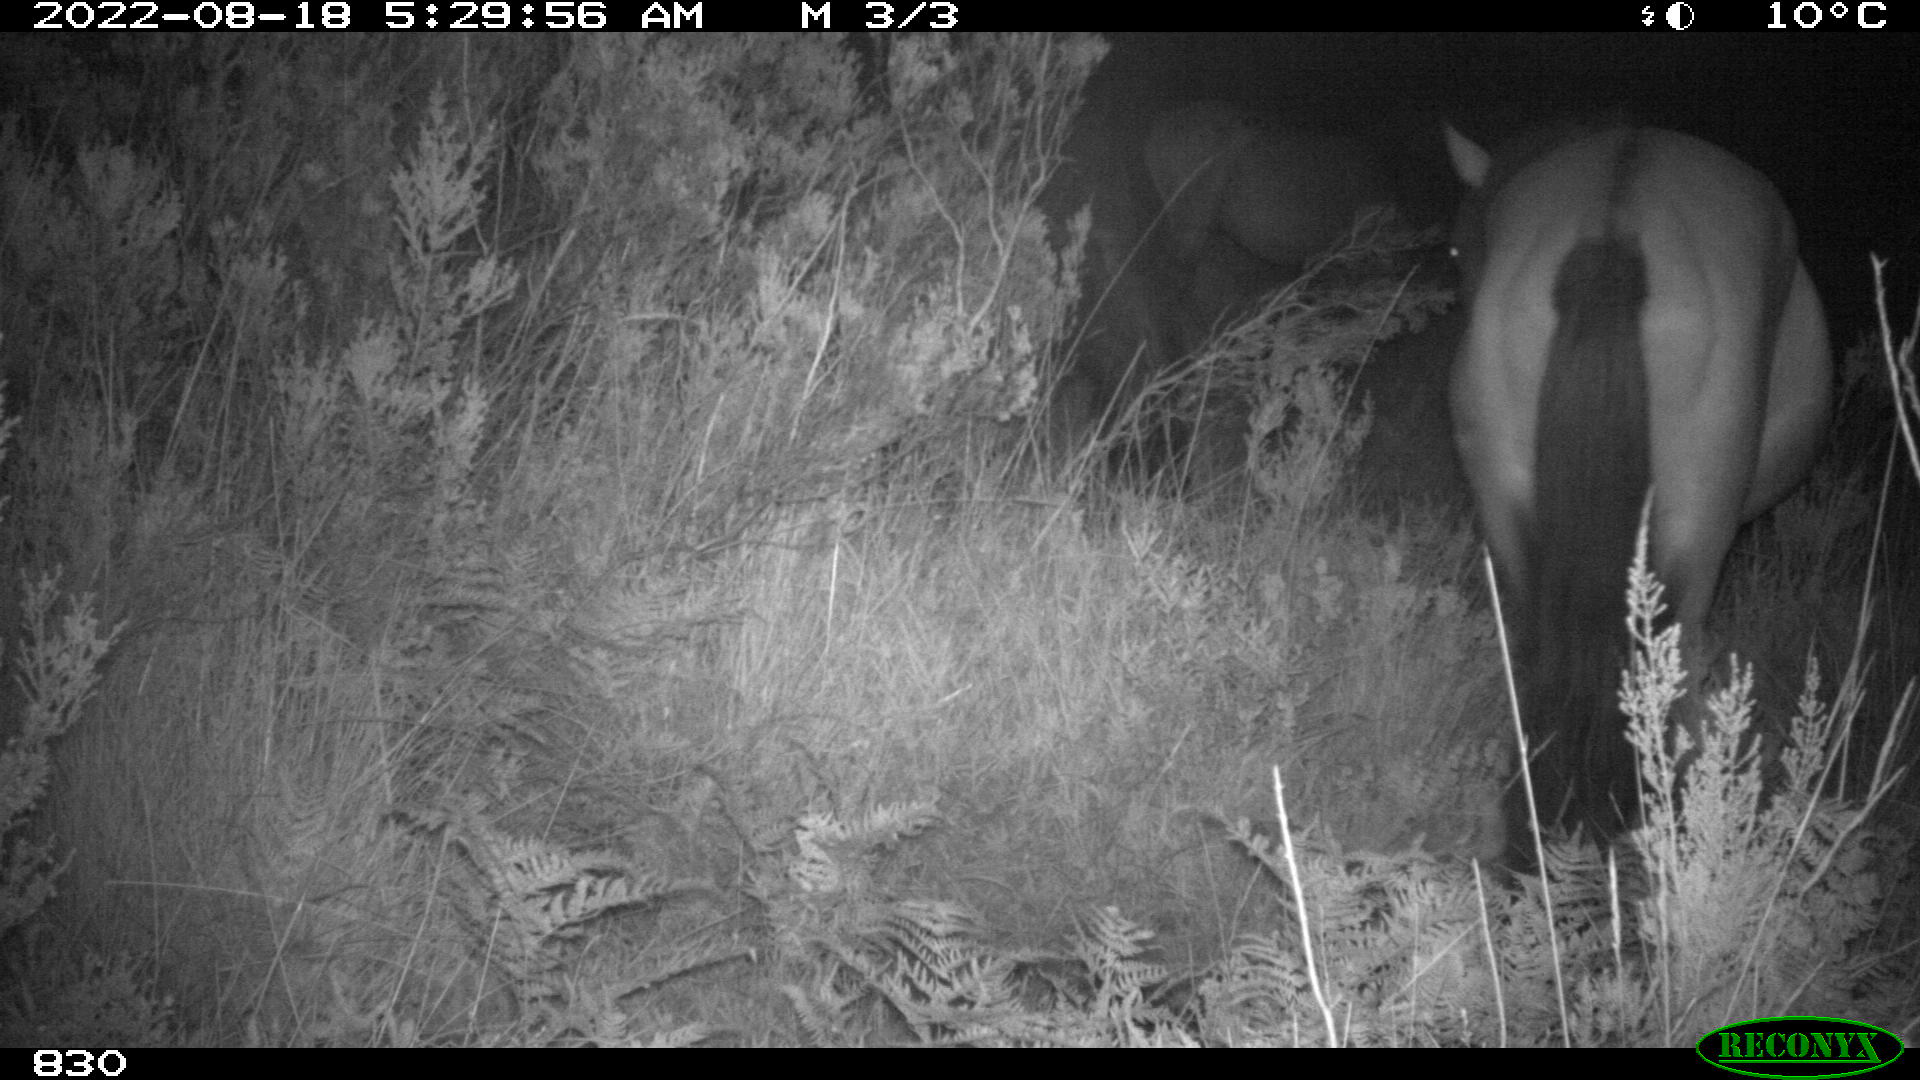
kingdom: Animalia
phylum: Chordata
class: Mammalia
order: Perissodactyla
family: Equidae
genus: Equus
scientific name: Equus caballus
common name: Horse
